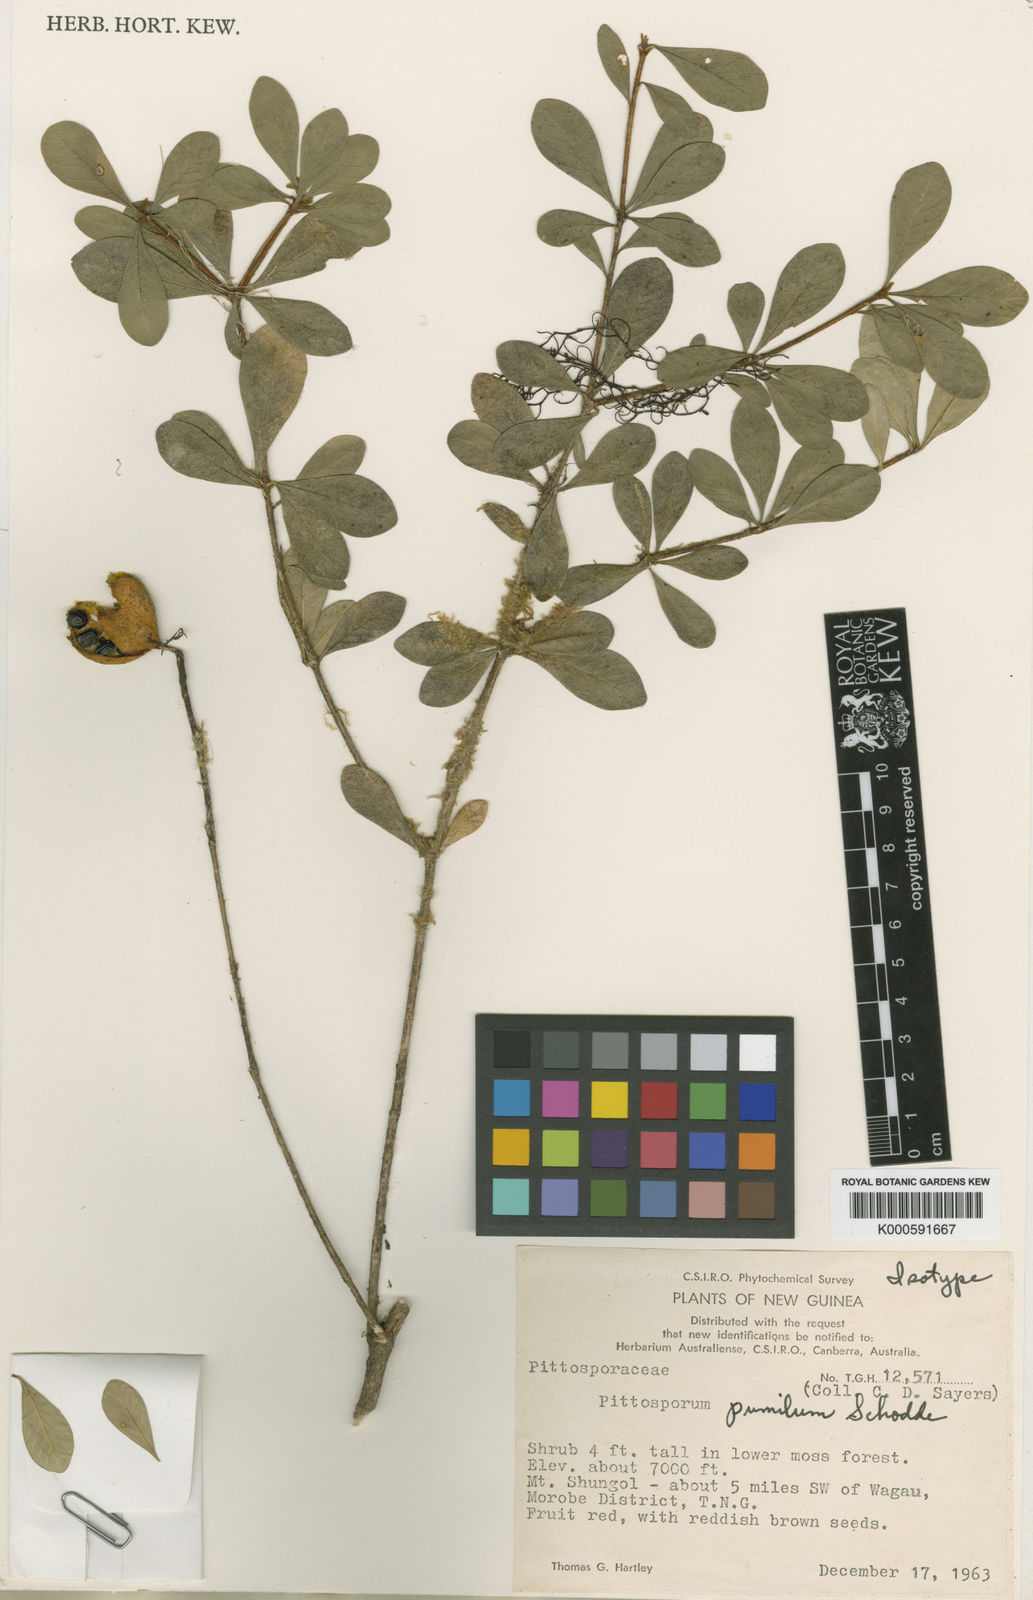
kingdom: Plantae
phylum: Tracheophyta
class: Magnoliopsida
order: Apiales
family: Pittosporaceae
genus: Pittosporum
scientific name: Pittosporum inopinatum
